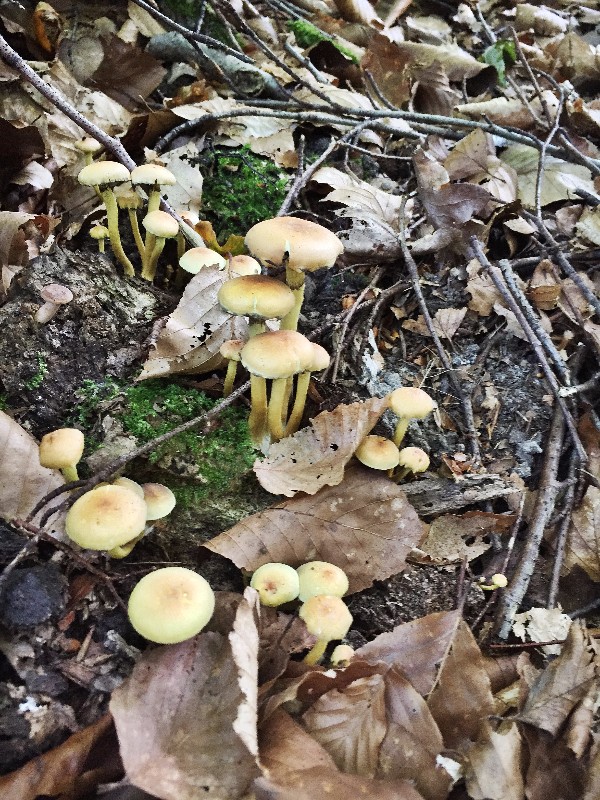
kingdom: Fungi
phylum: Basidiomycota
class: Agaricomycetes
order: Agaricales
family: Strophariaceae
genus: Hypholoma
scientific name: Hypholoma fasciculare
